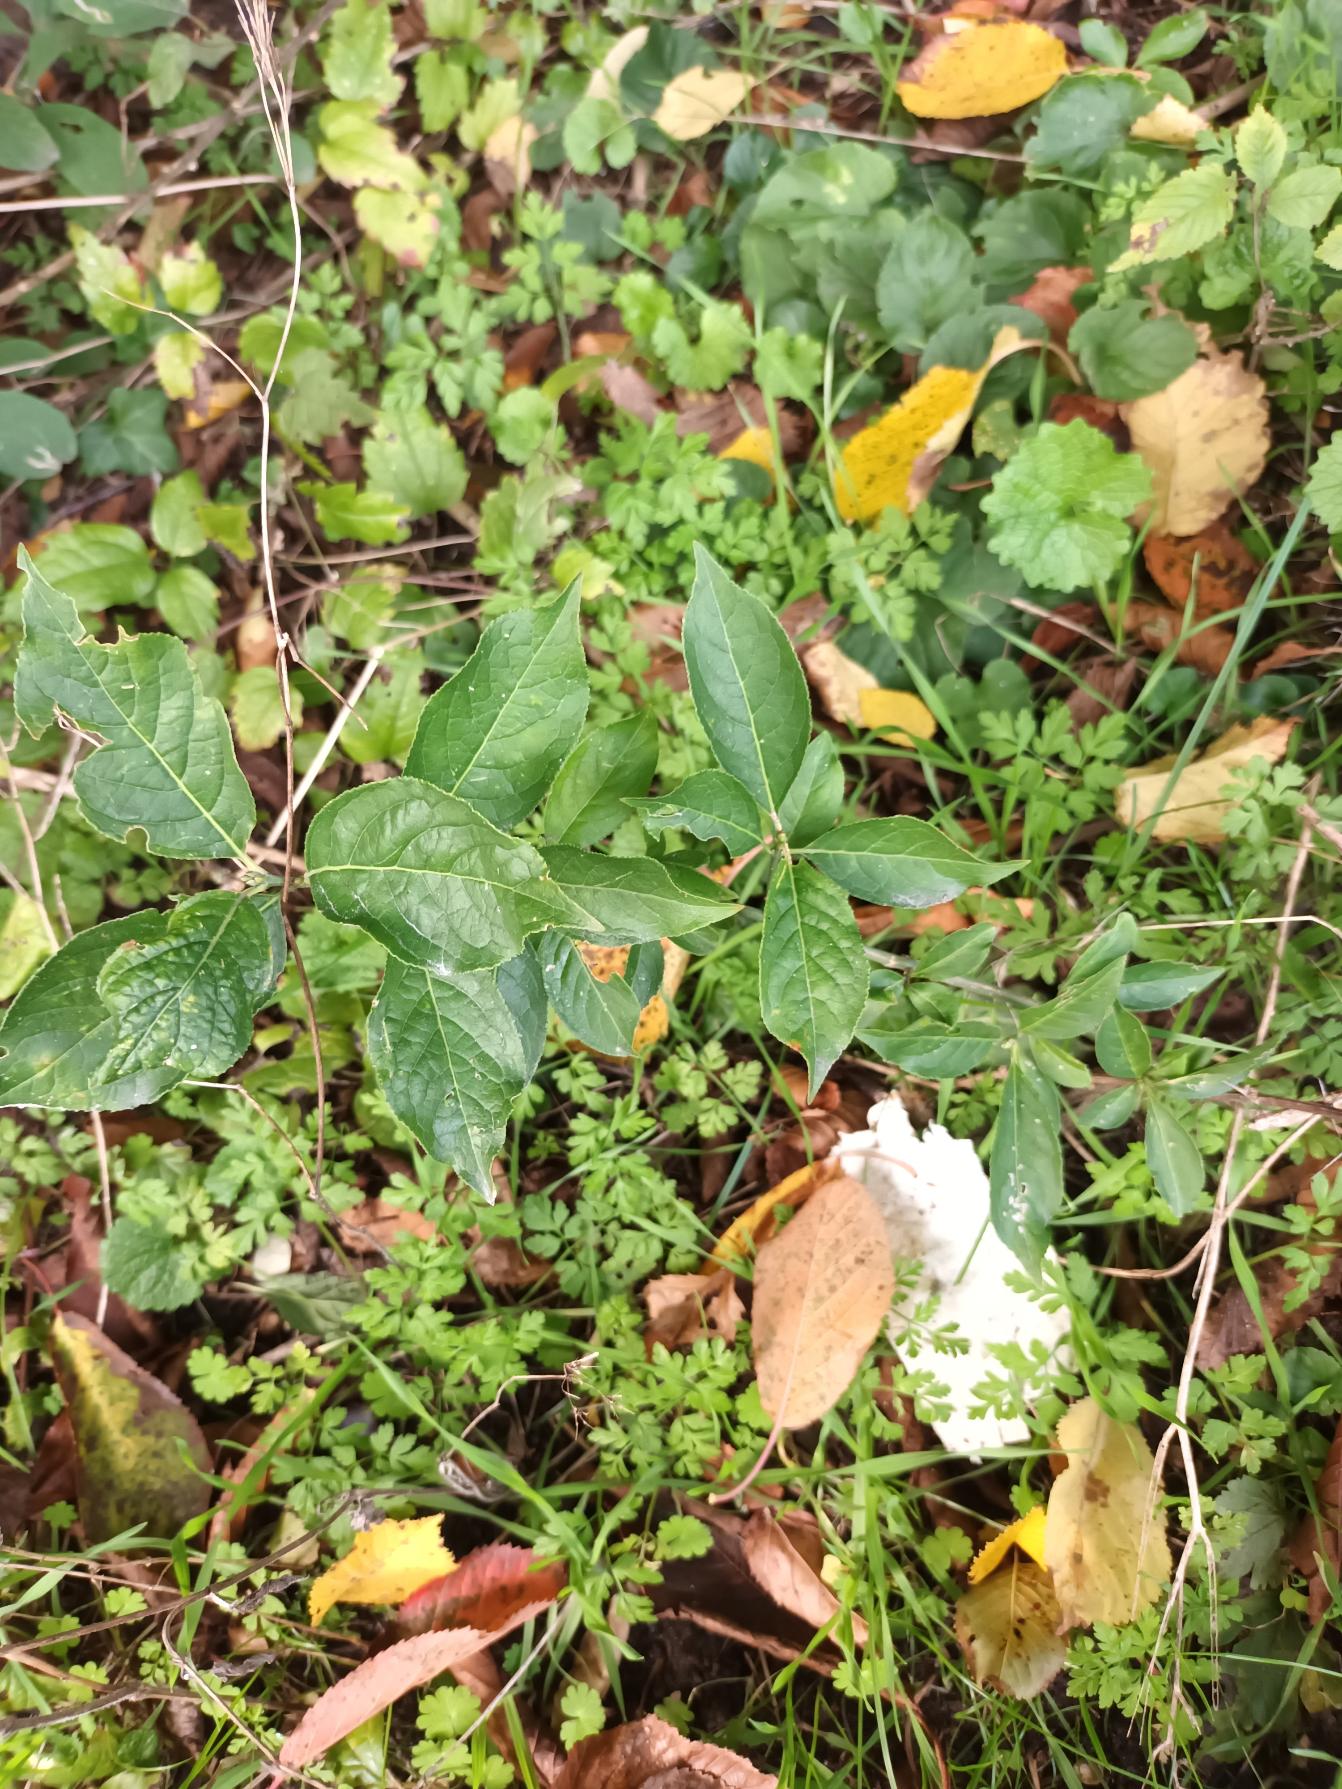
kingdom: Plantae
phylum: Tracheophyta
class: Magnoliopsida
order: Celastrales
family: Celastraceae
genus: Euonymus
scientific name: Euonymus europaeus
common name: Benved
